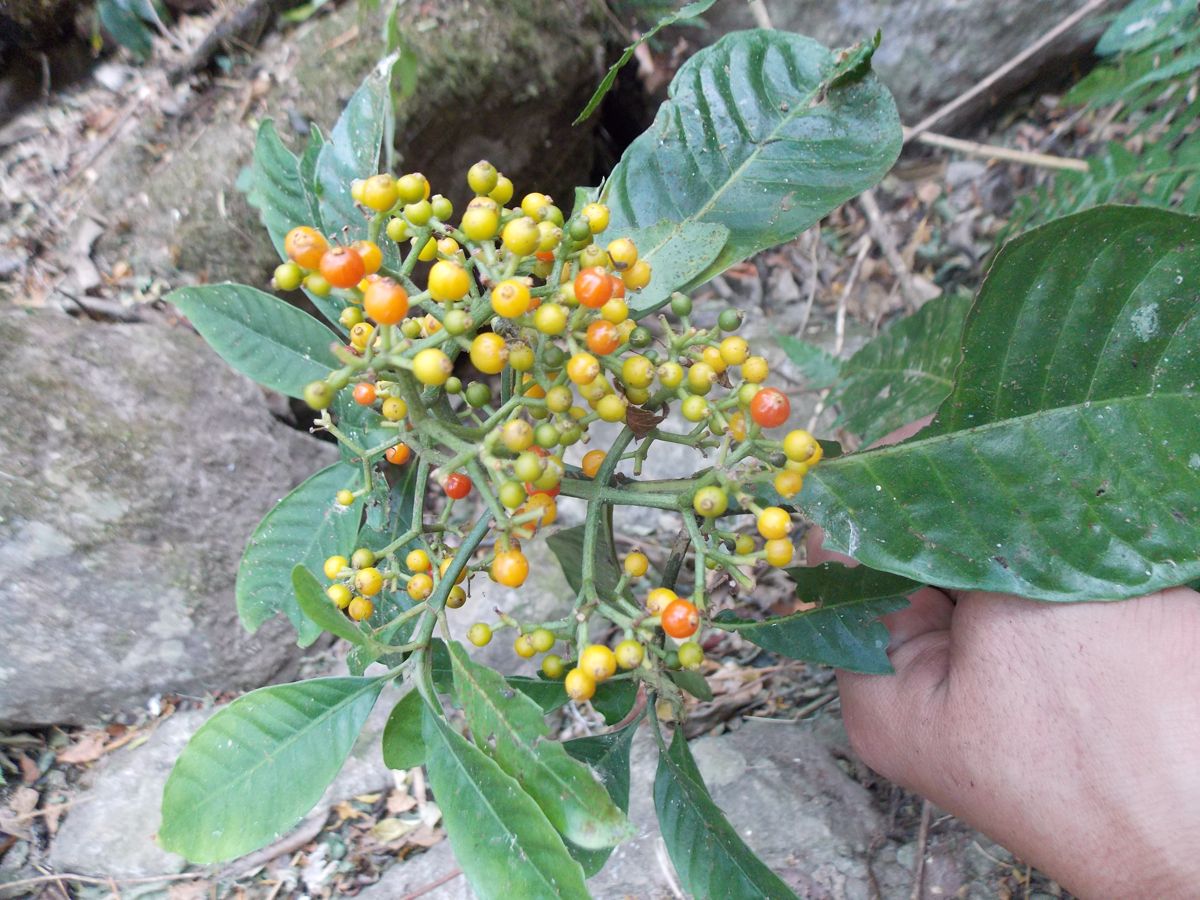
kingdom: Plantae
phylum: Tracheophyta
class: Magnoliopsida
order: Gentianales
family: Rubiaceae
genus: Psychotria
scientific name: Psychotria
